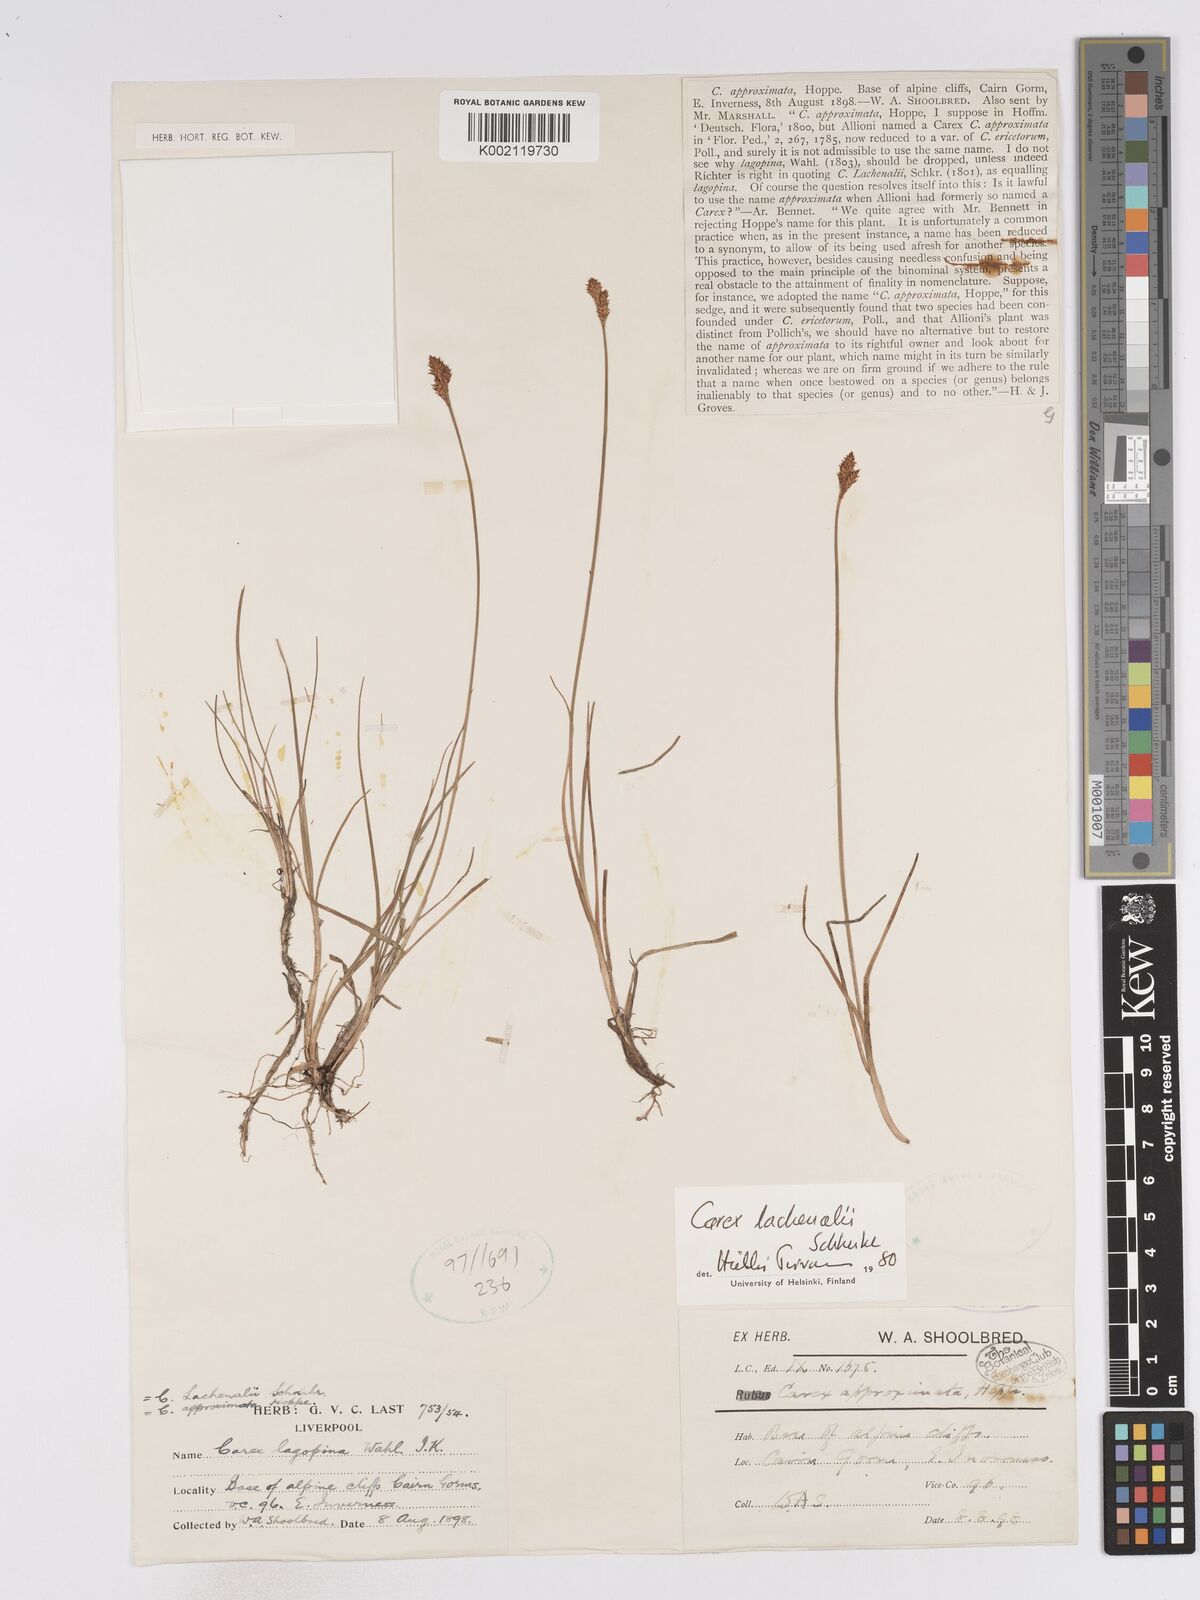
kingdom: Plantae
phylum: Tracheophyta
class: Liliopsida
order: Poales
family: Cyperaceae
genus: Carex
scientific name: Carex helvola
